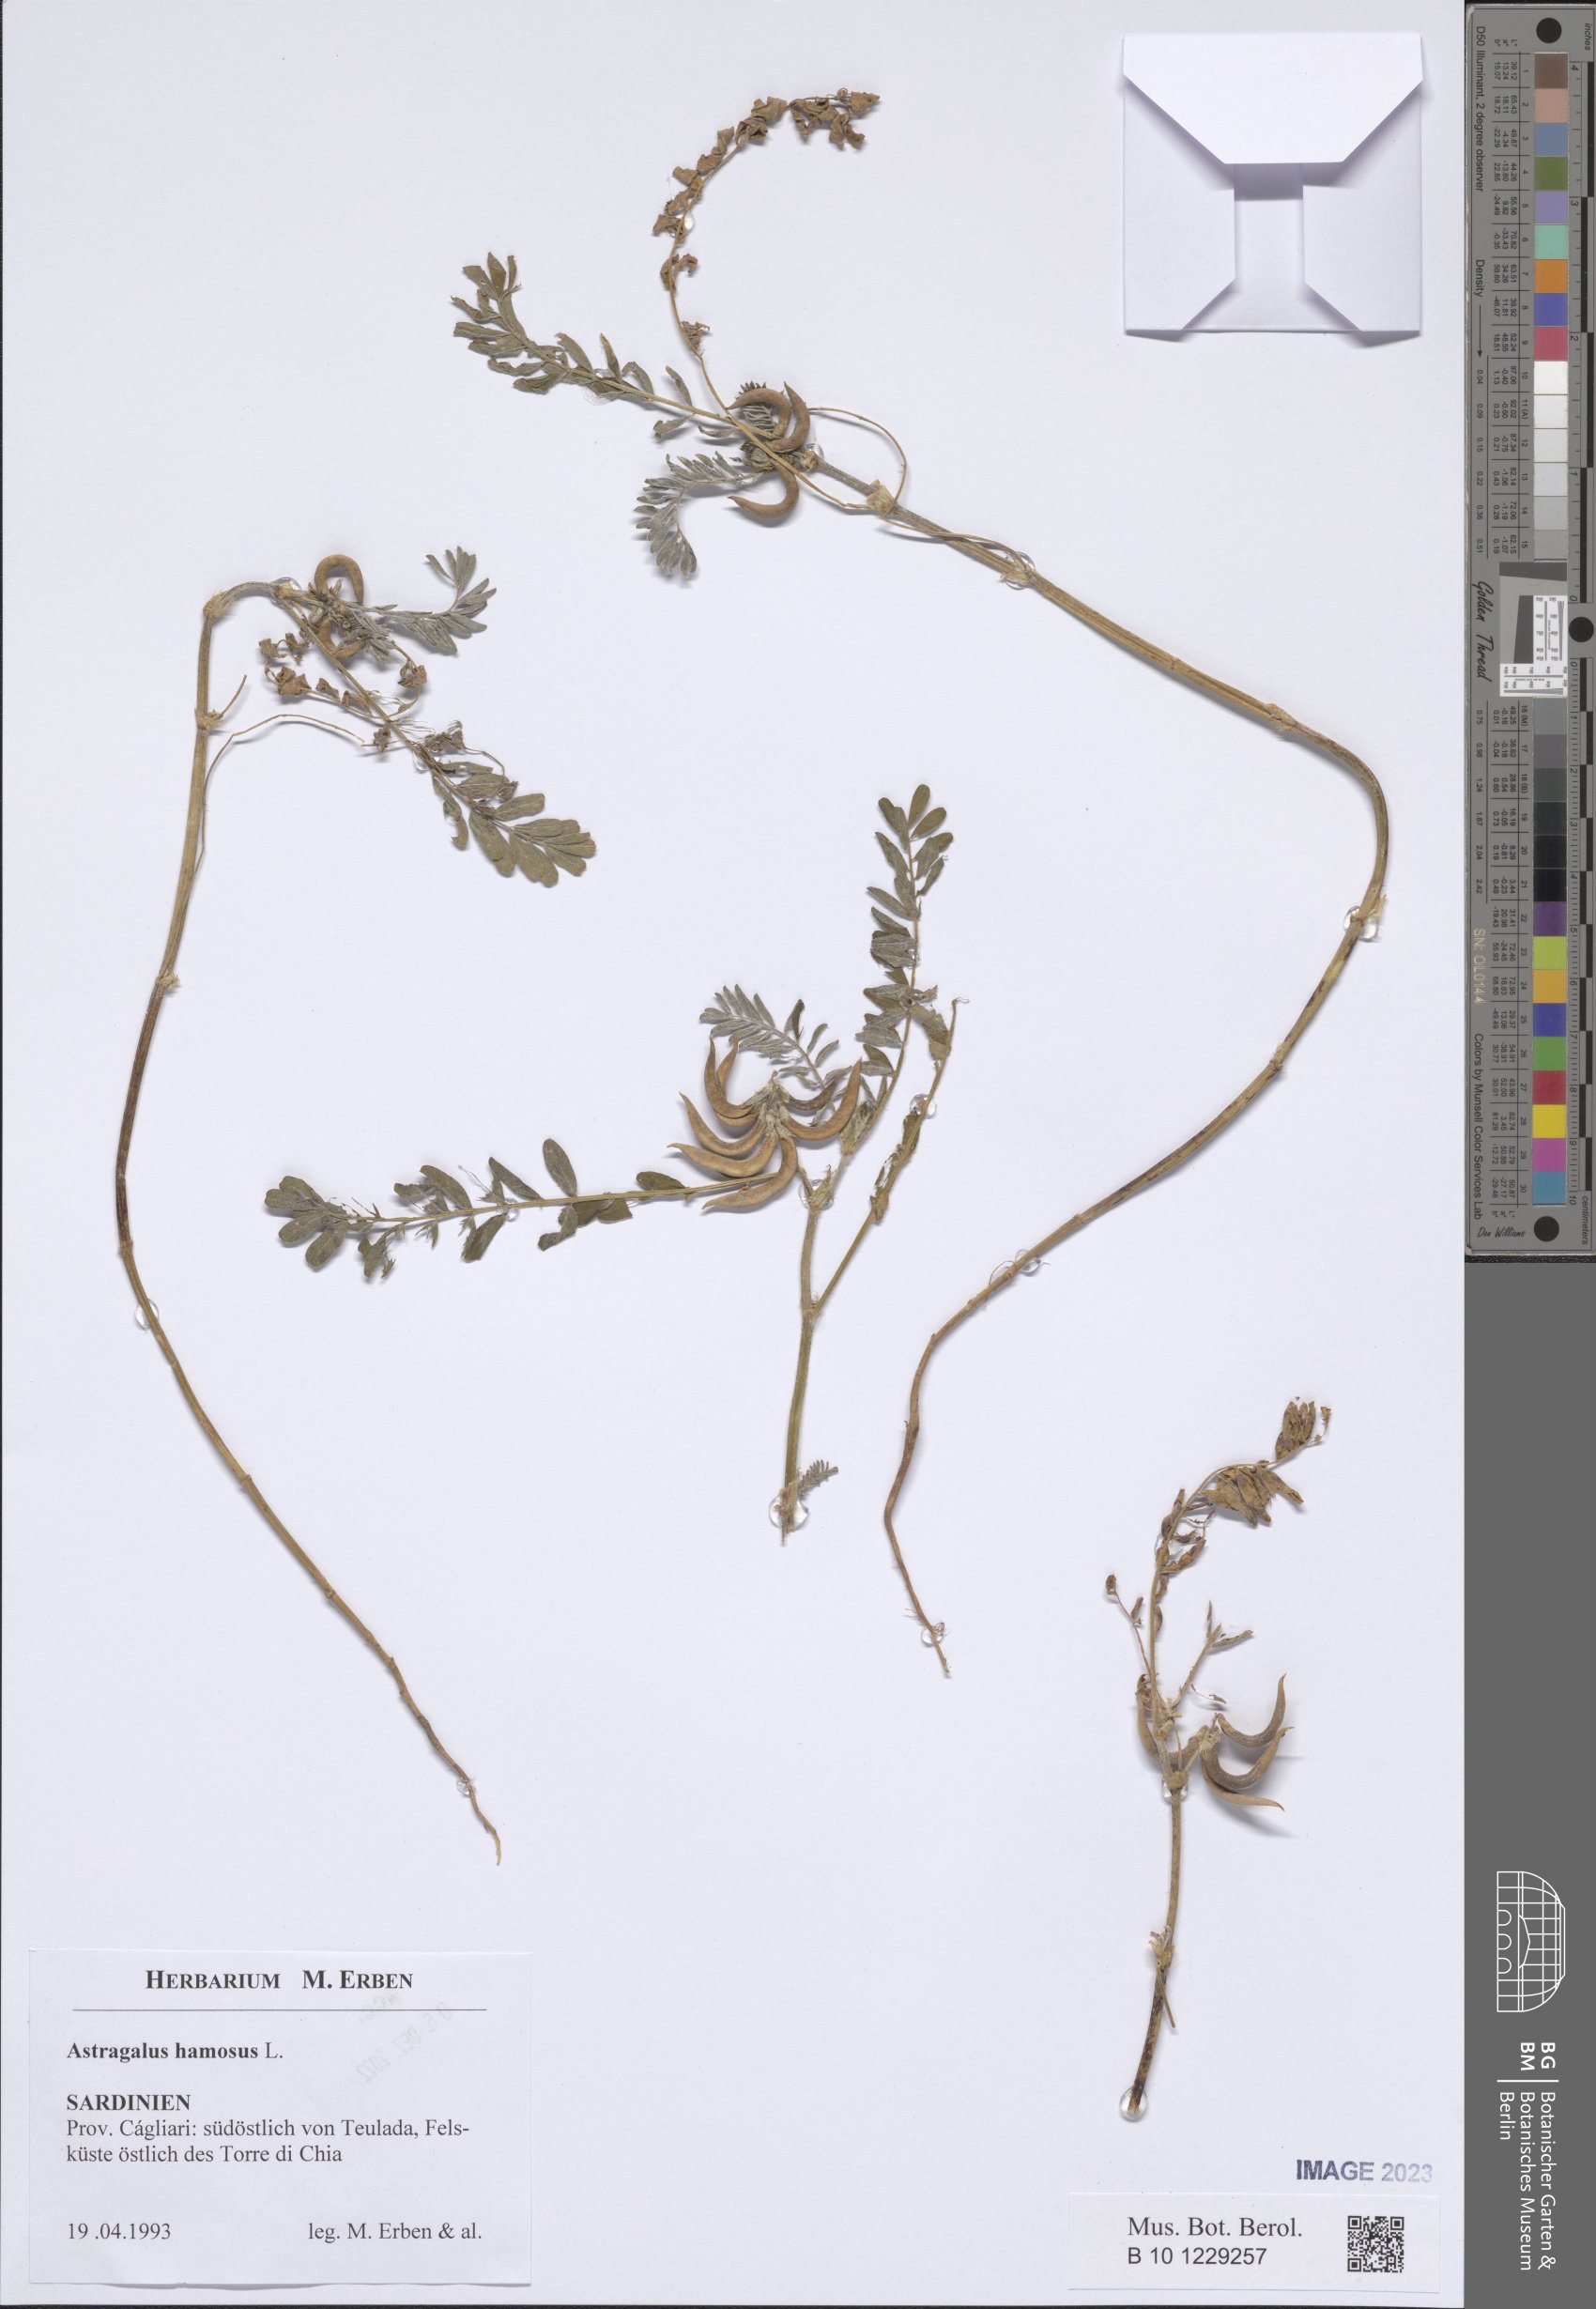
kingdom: Plantae
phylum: Tracheophyta
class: Magnoliopsida
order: Fabales
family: Fabaceae
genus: Astragalus
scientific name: Astragalus hamosus
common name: European milkvetch
